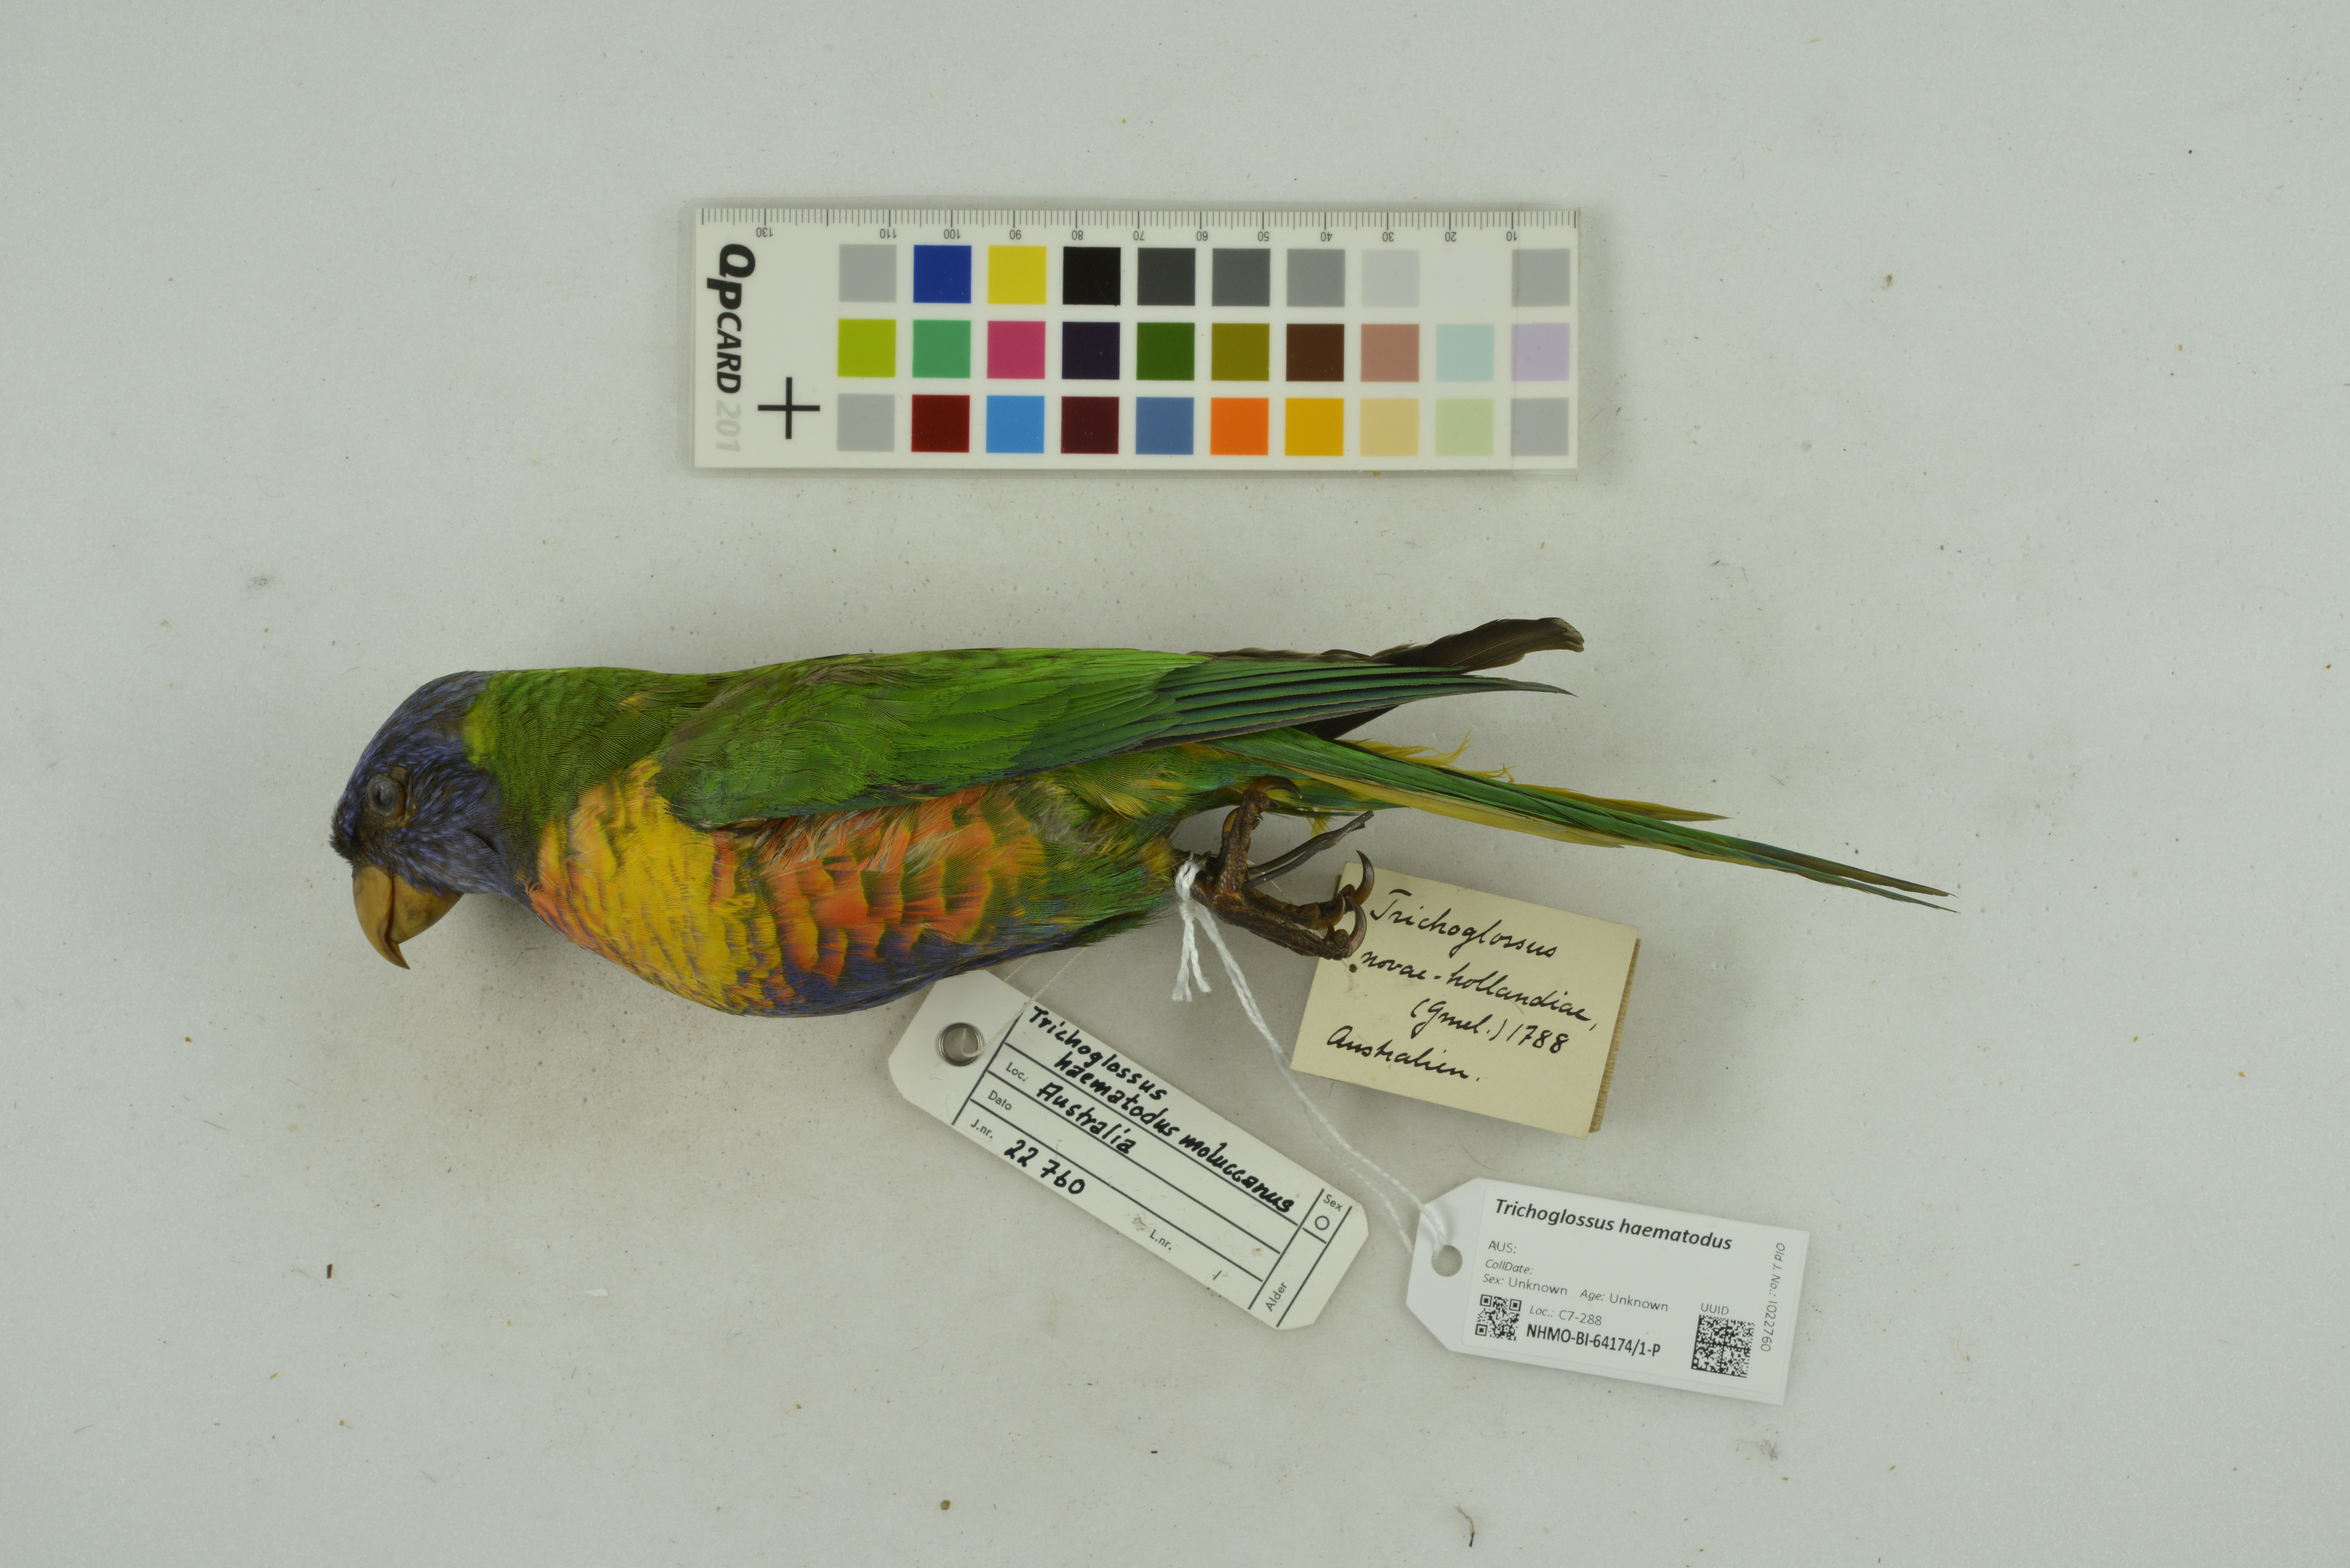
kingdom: Animalia
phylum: Chordata
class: Aves
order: Psittaciformes
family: Psittacidae
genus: Trichoglossus
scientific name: Trichoglossus haematodus
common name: Coconut lorikeet
